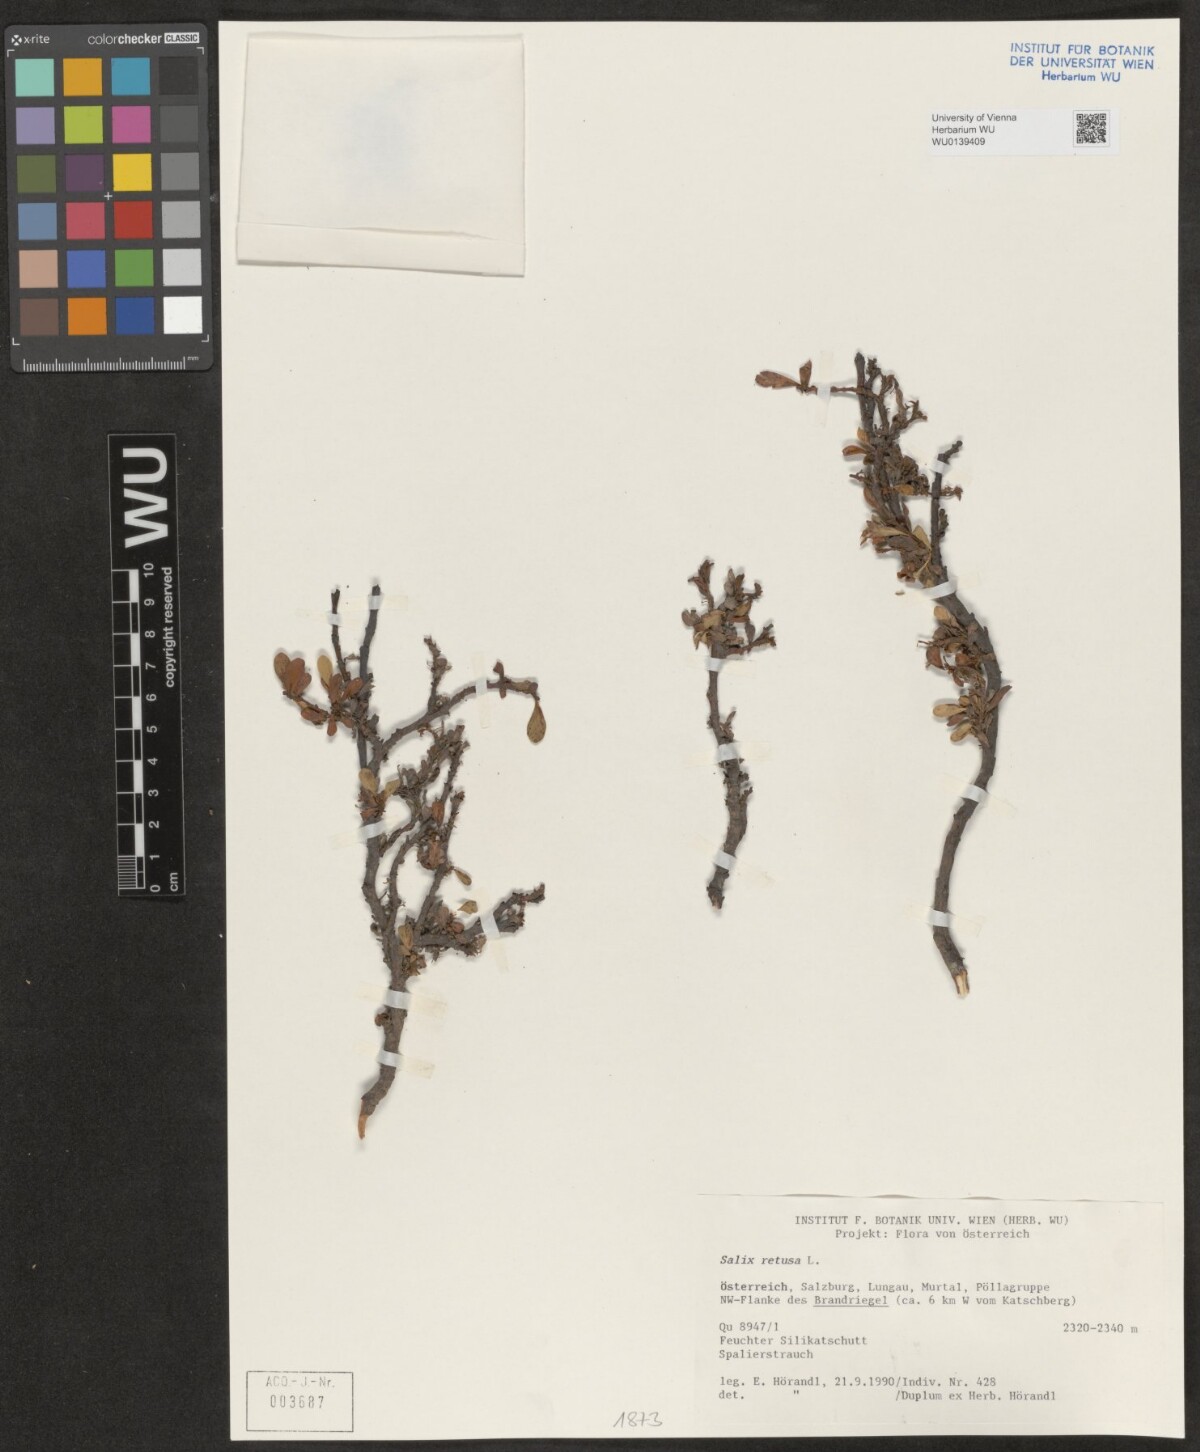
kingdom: Plantae
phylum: Tracheophyta
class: Magnoliopsida
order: Malpighiales
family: Salicaceae
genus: Salix
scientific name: Salix retusa
